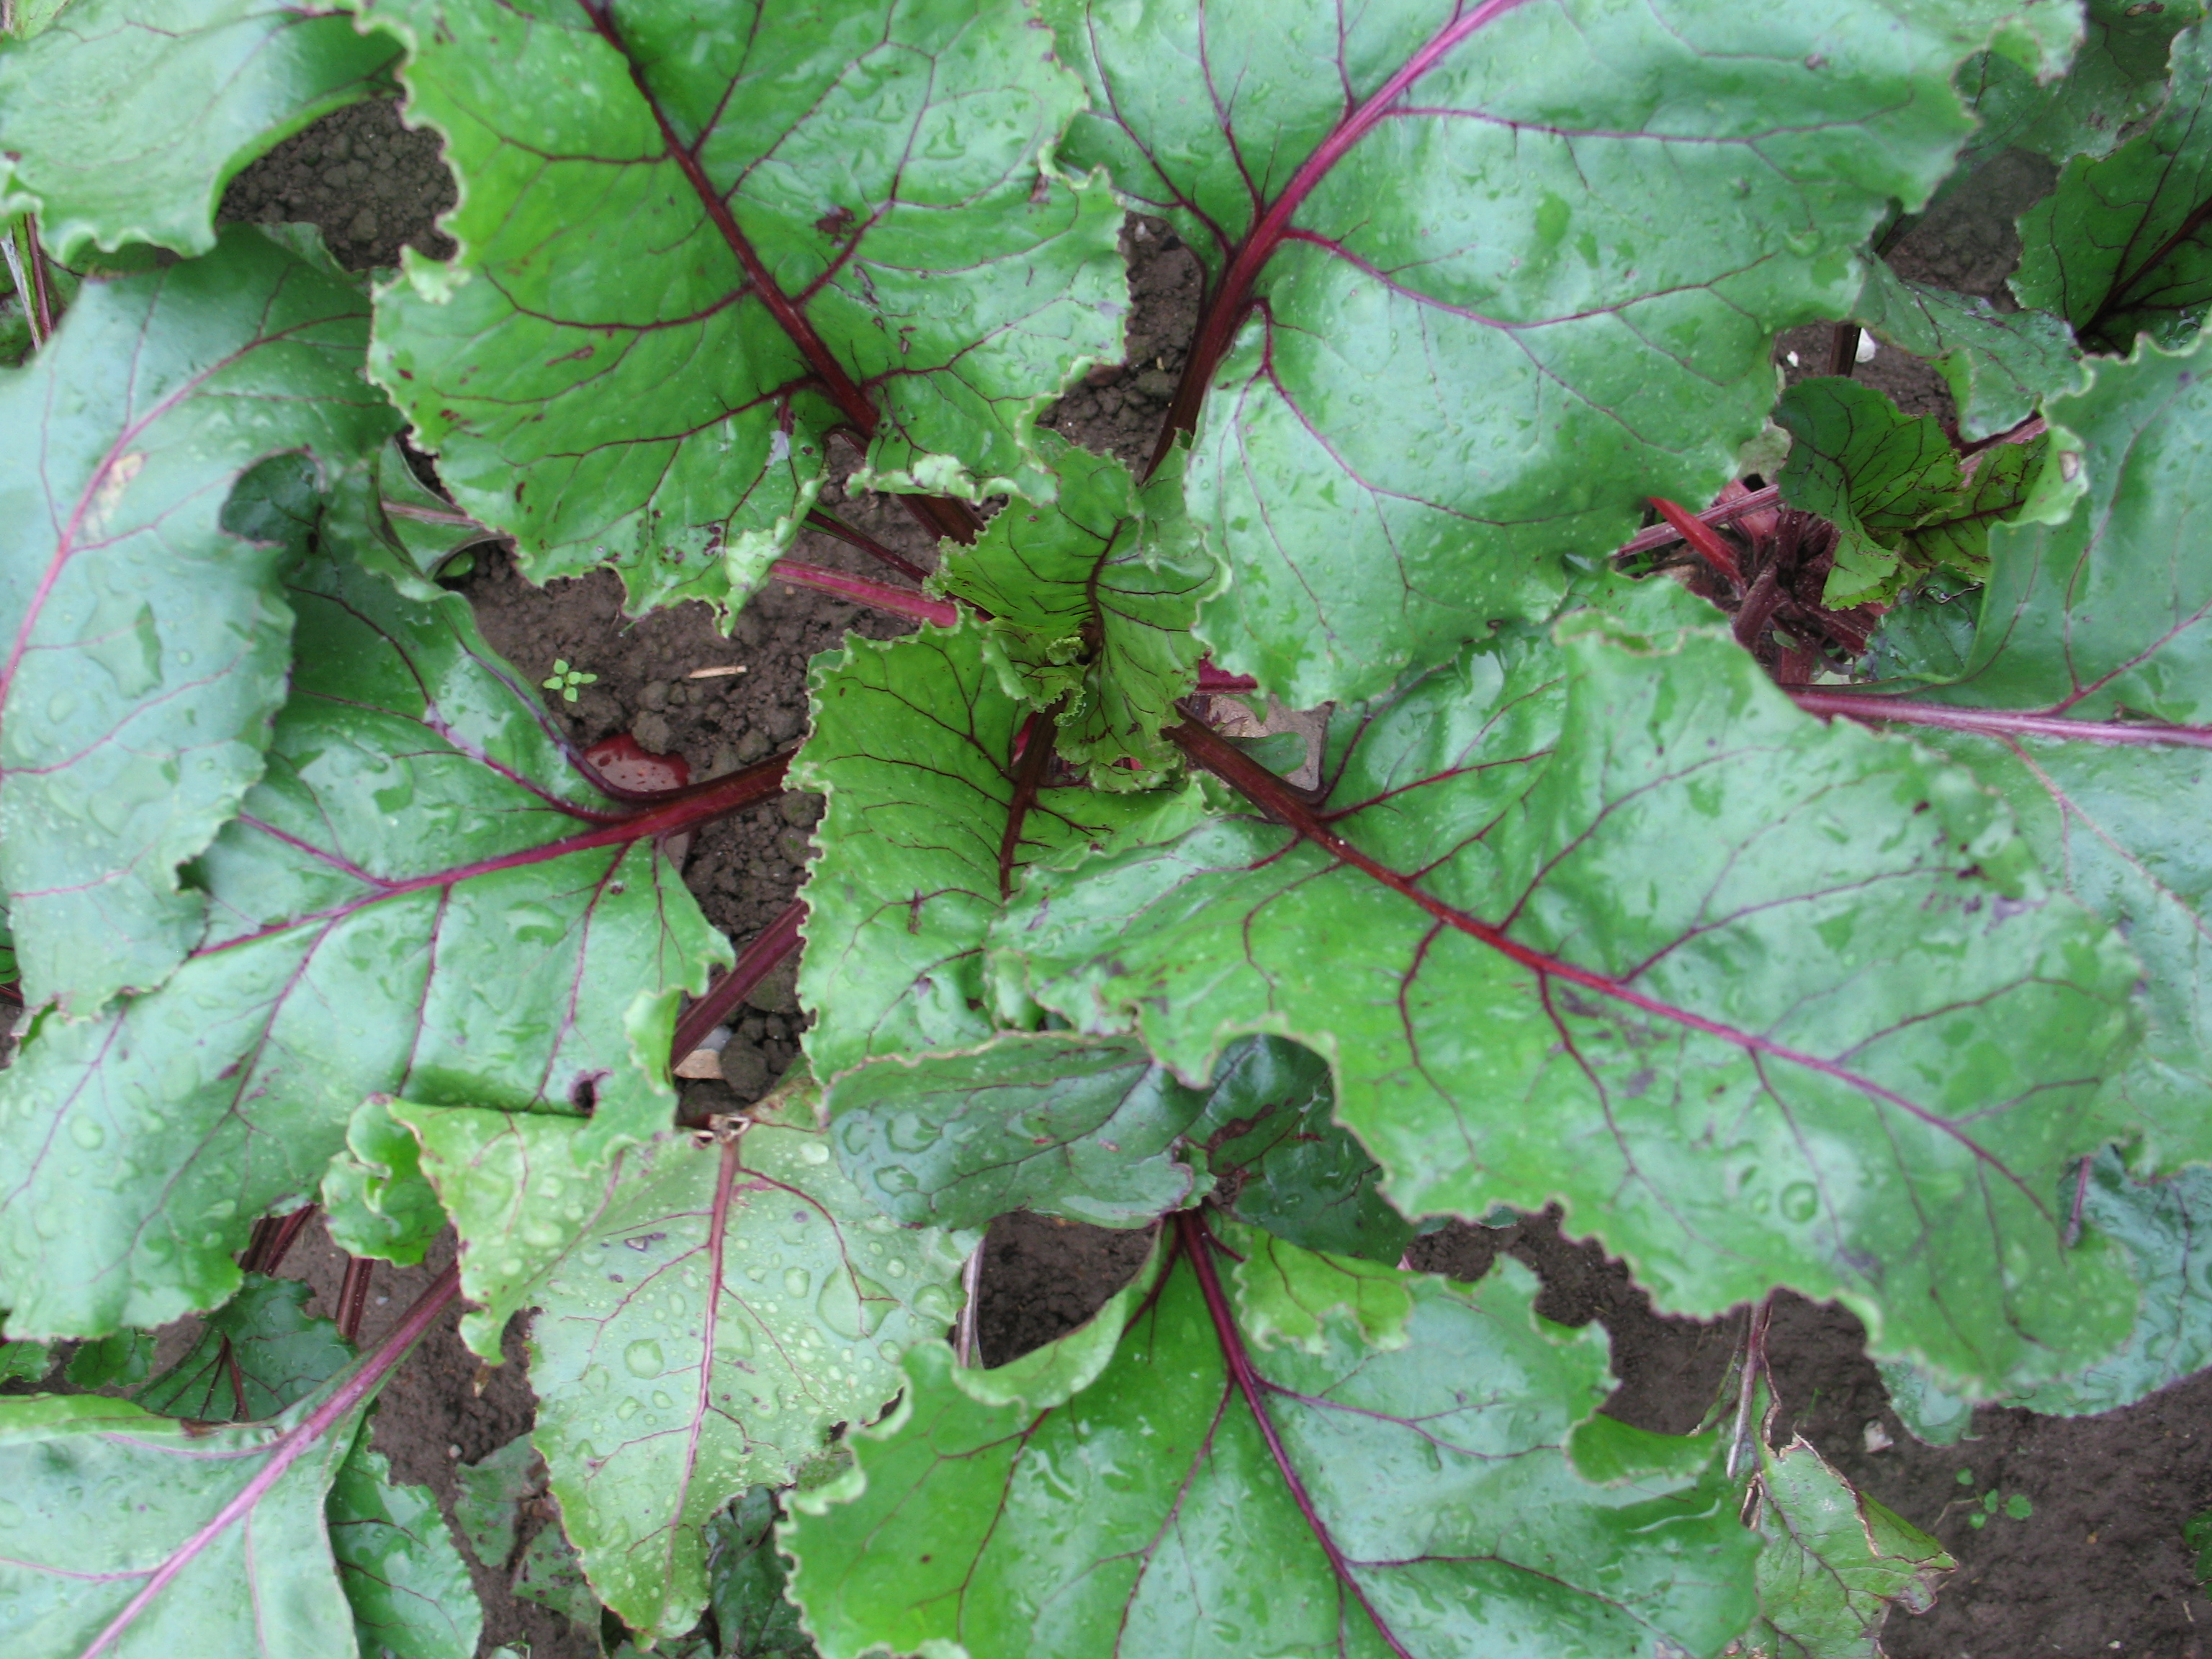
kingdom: Plantae
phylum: Tracheophyta
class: Magnoliopsida
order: Caryophyllales
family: Amaranthaceae
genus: Beta
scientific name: Beta vulgaris
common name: Beet
